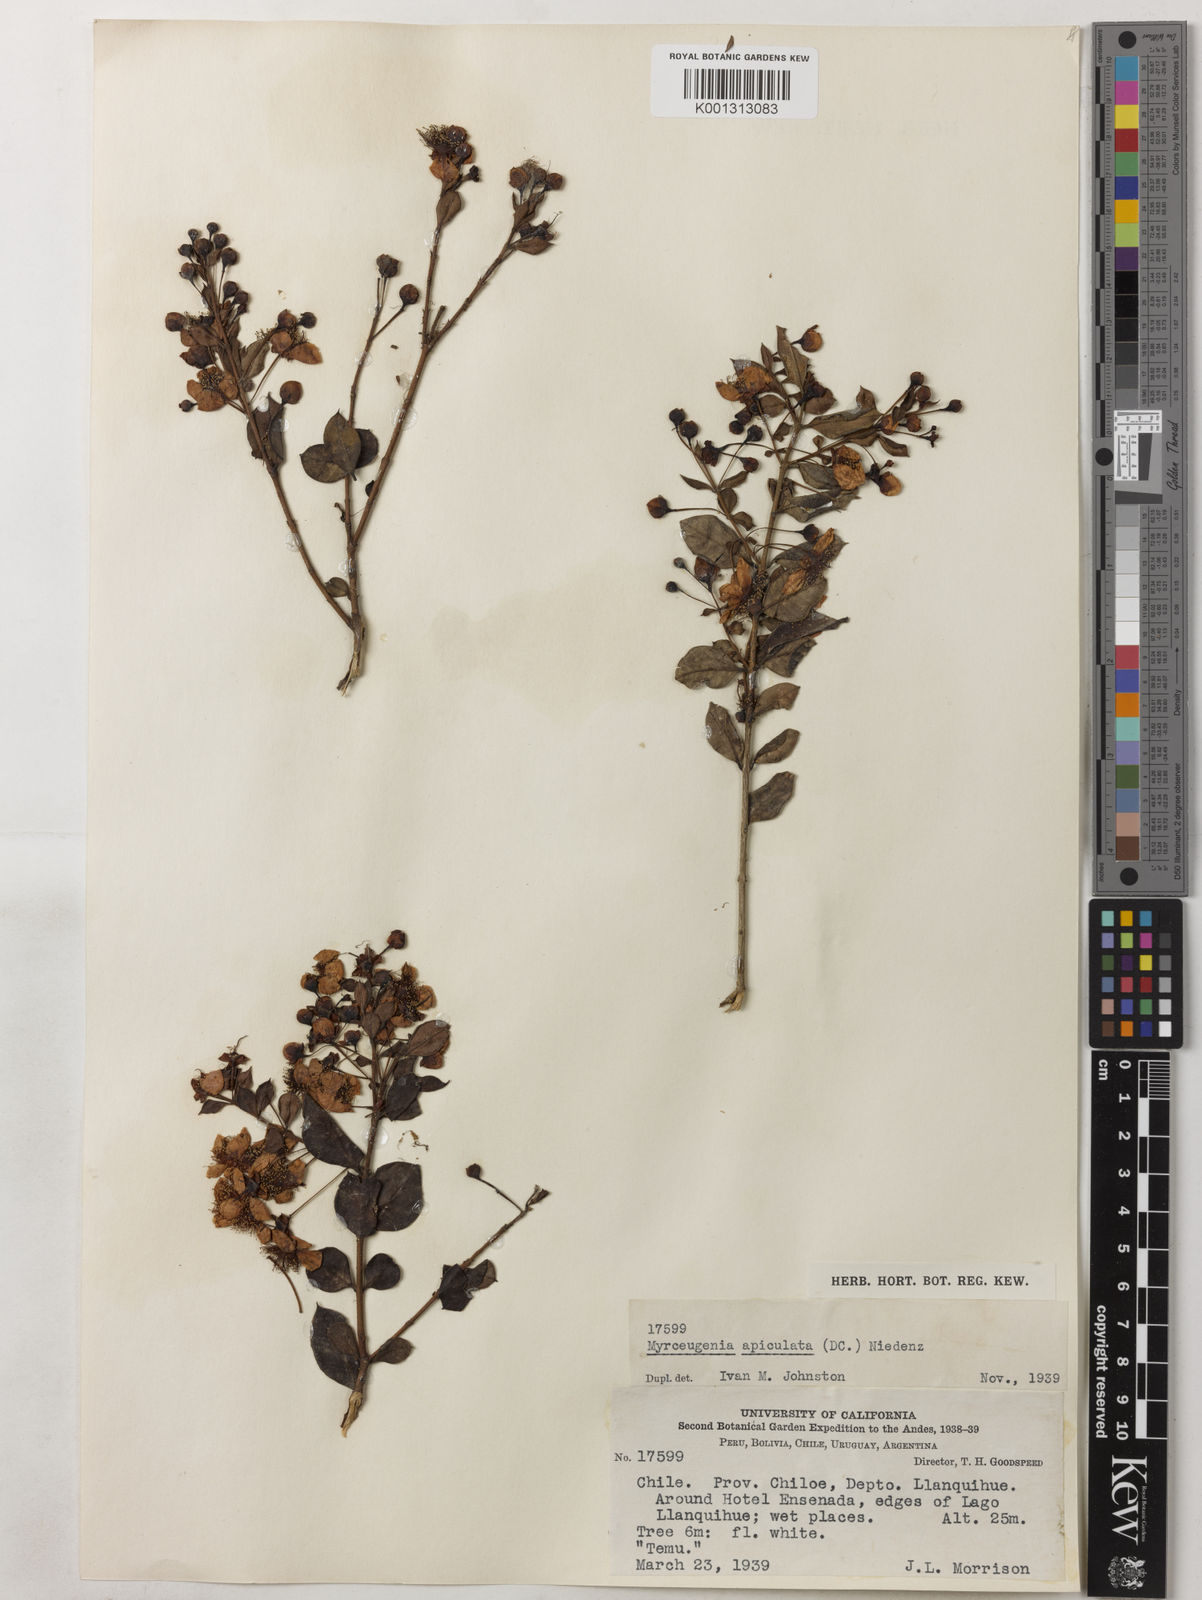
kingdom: Plantae
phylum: Tracheophyta
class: Magnoliopsida
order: Myrtales
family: Myrtaceae
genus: Luma
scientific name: Luma apiculata
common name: Chilean myrtle
